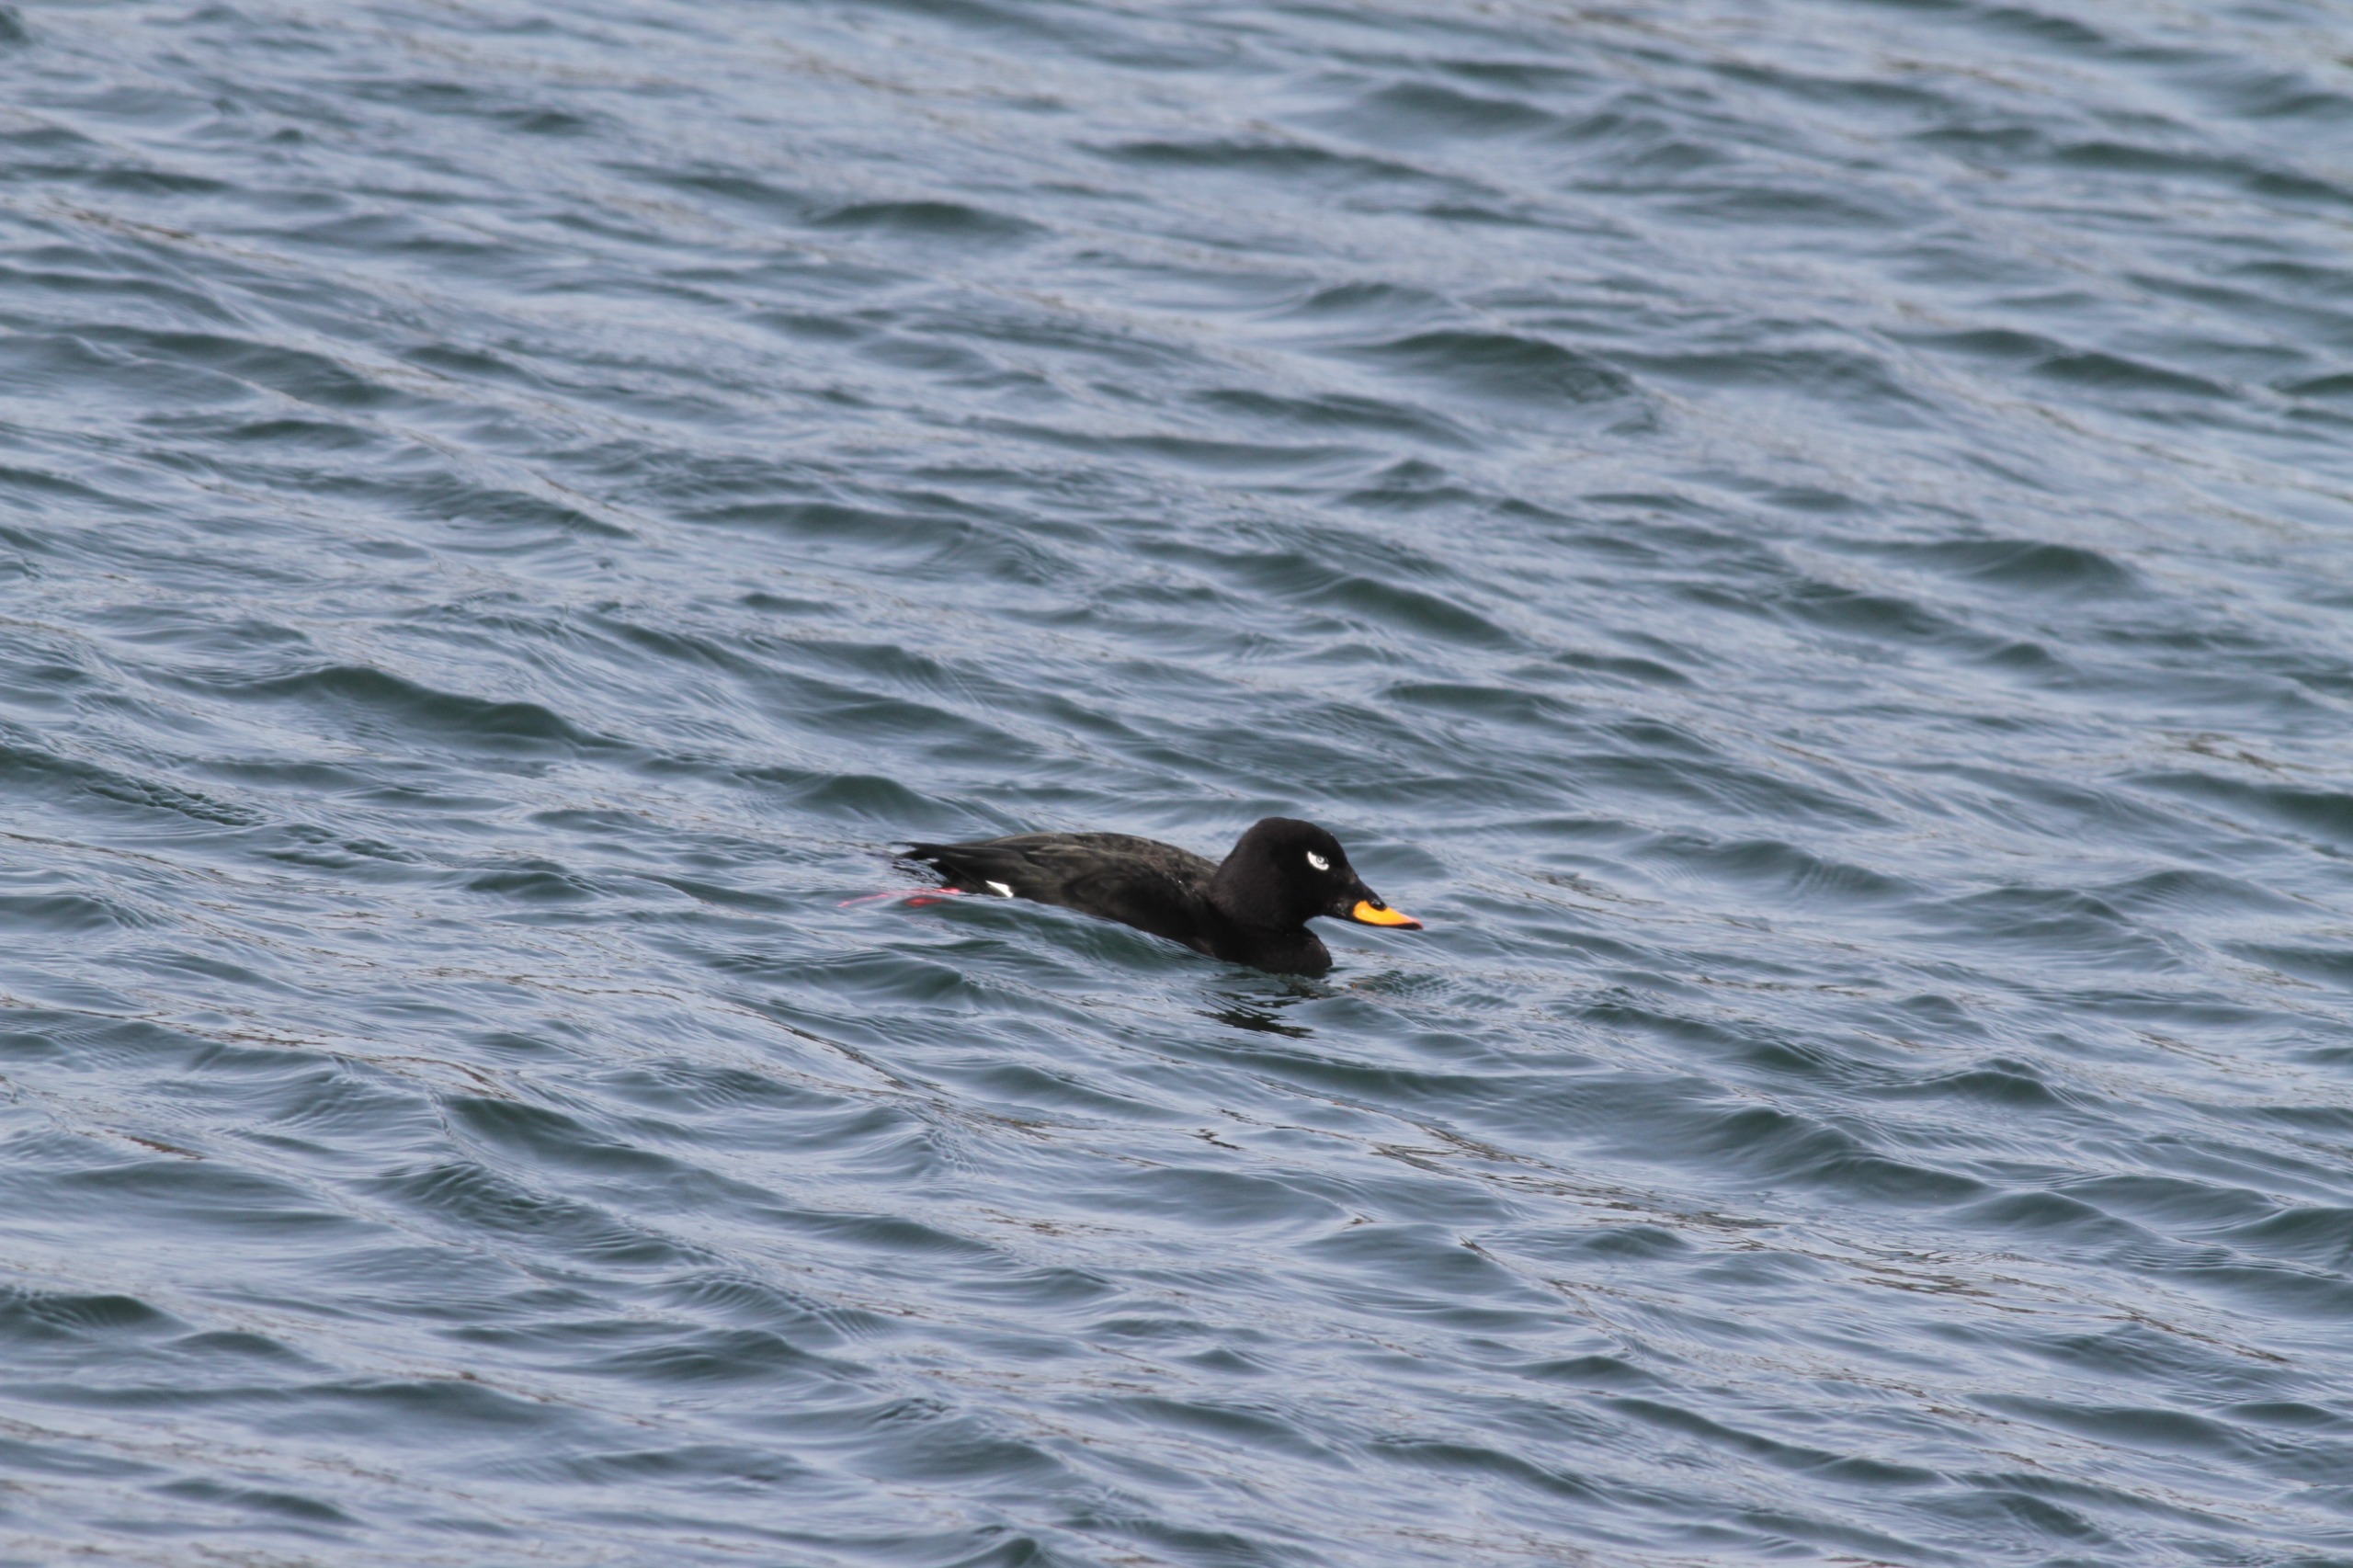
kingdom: Animalia
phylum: Chordata
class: Aves
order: Anseriformes
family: Anatidae
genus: Melanitta
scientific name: Melanitta fusca
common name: Fløjlsand
